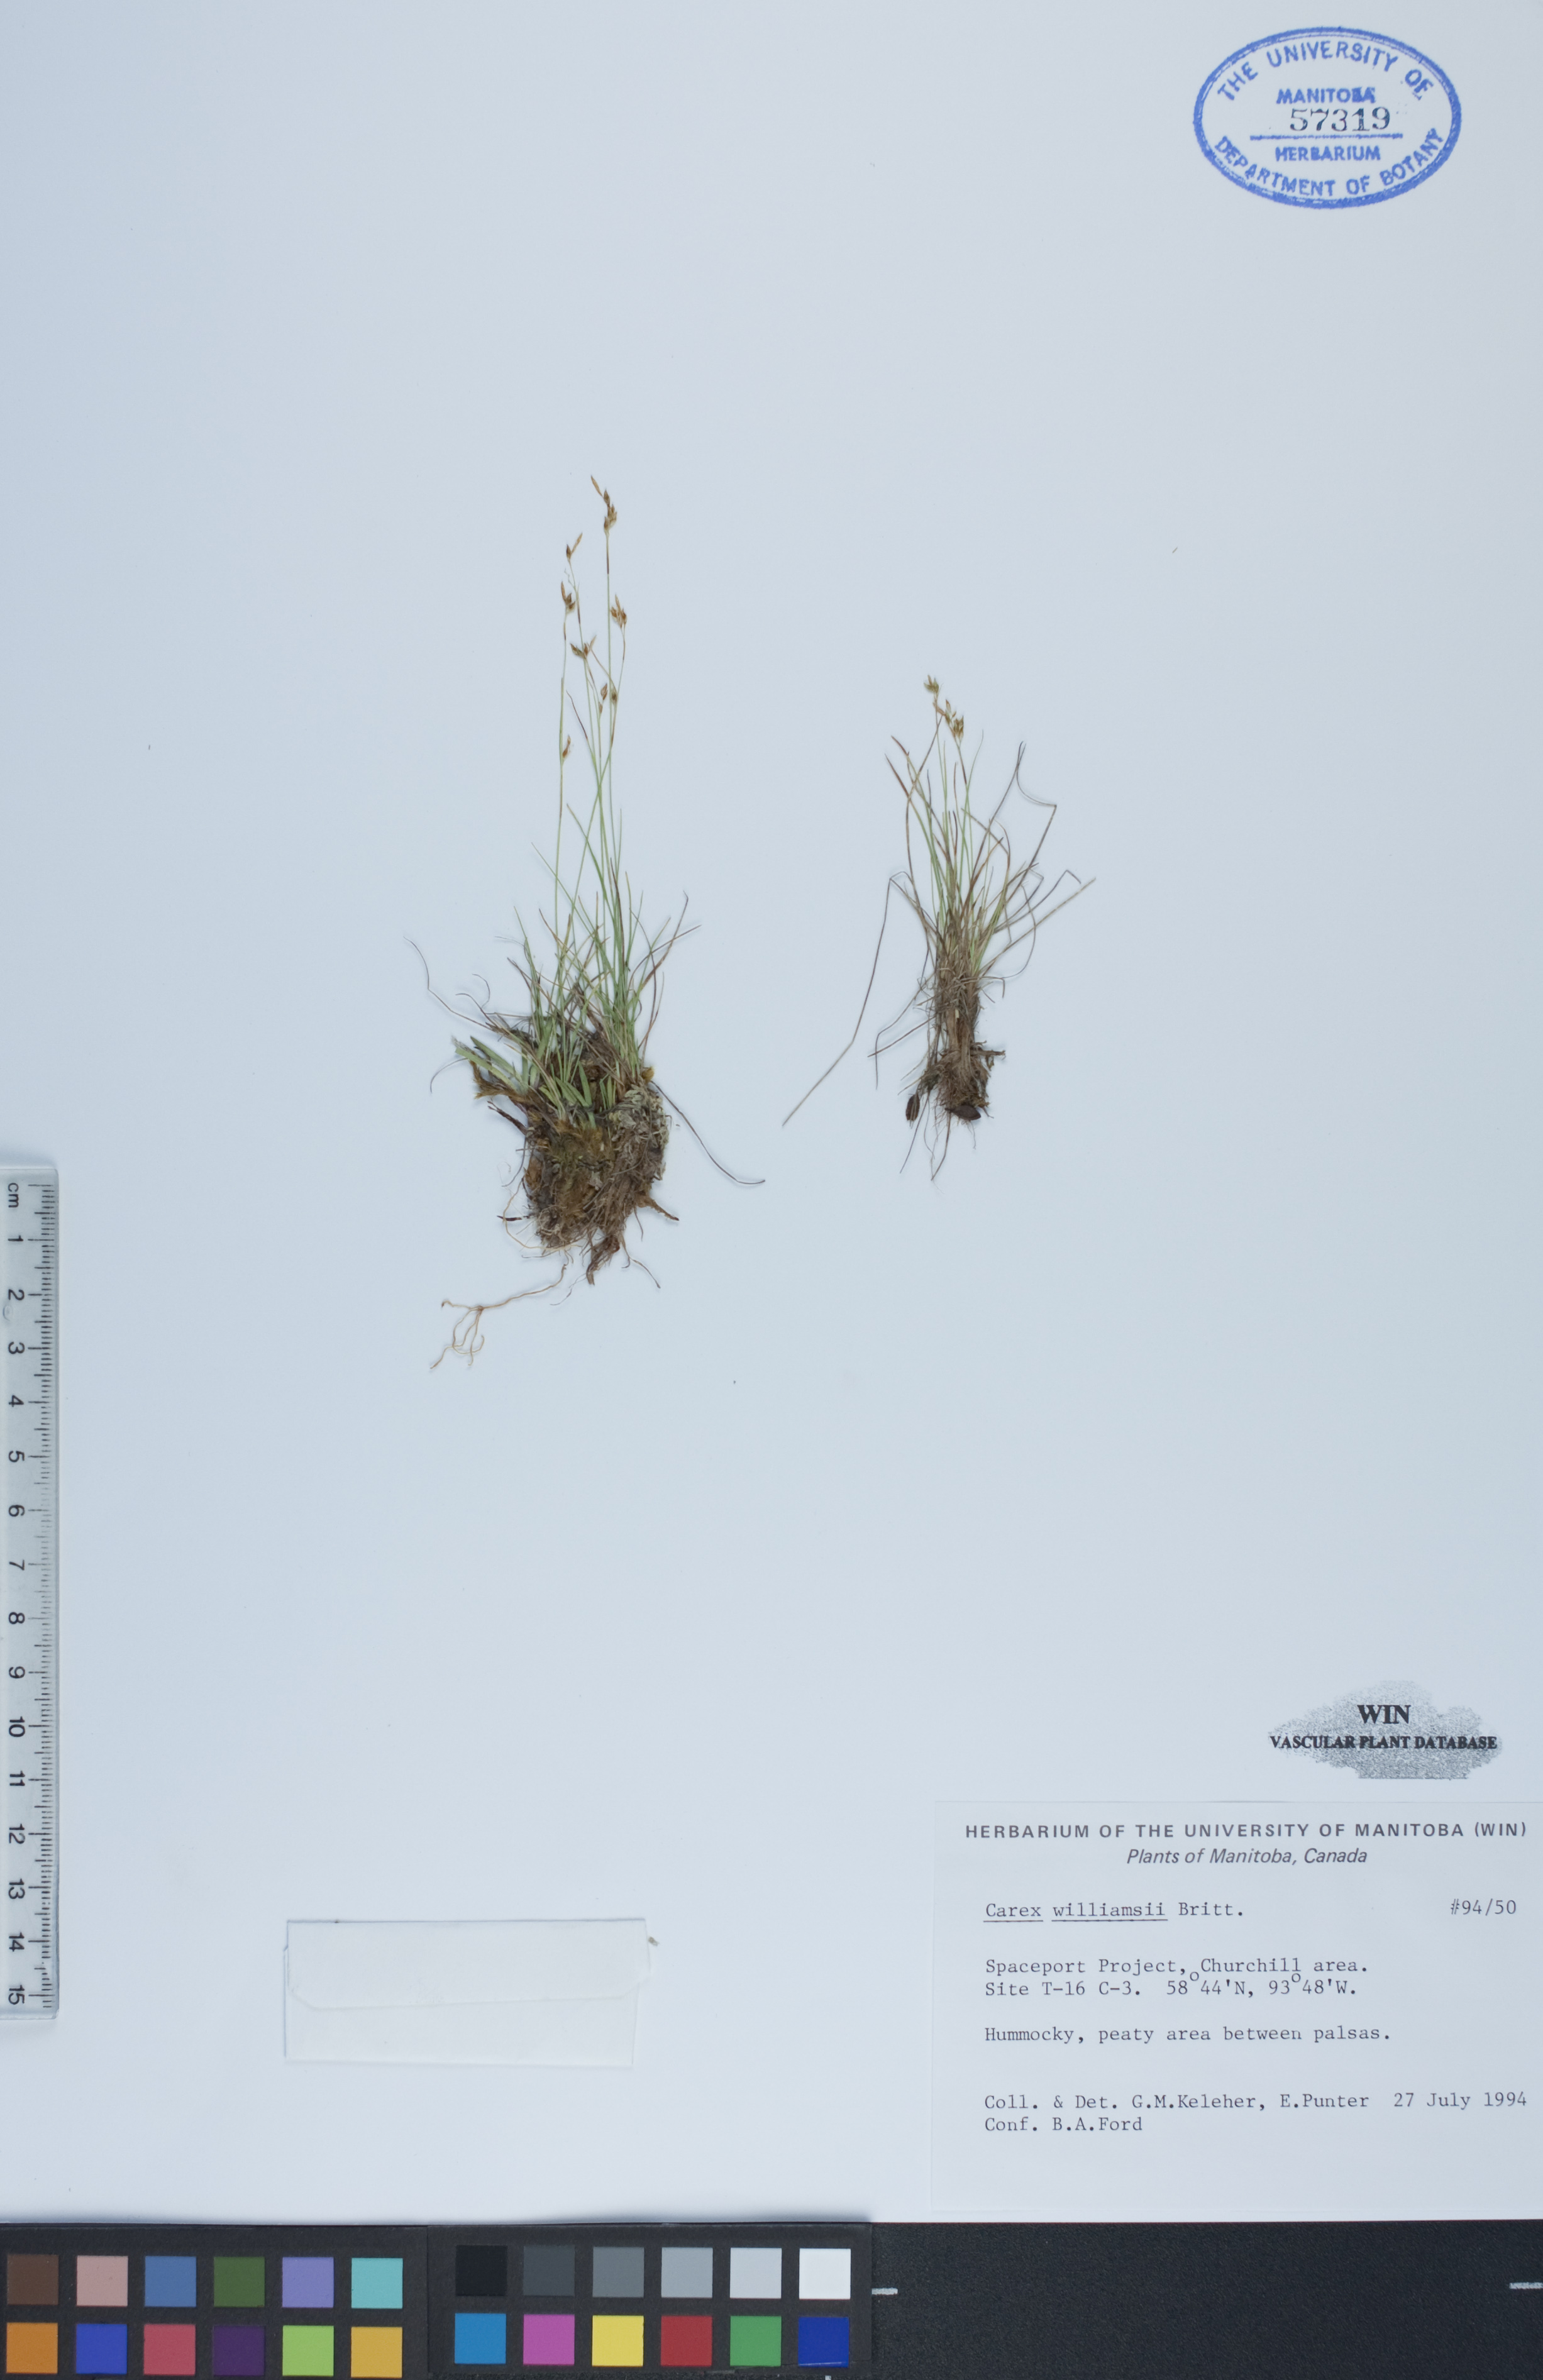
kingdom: Plantae
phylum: Tracheophyta
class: Liliopsida
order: Poales
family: Cyperaceae
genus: Carex
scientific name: Carex williamsii
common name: Williams' sedge
